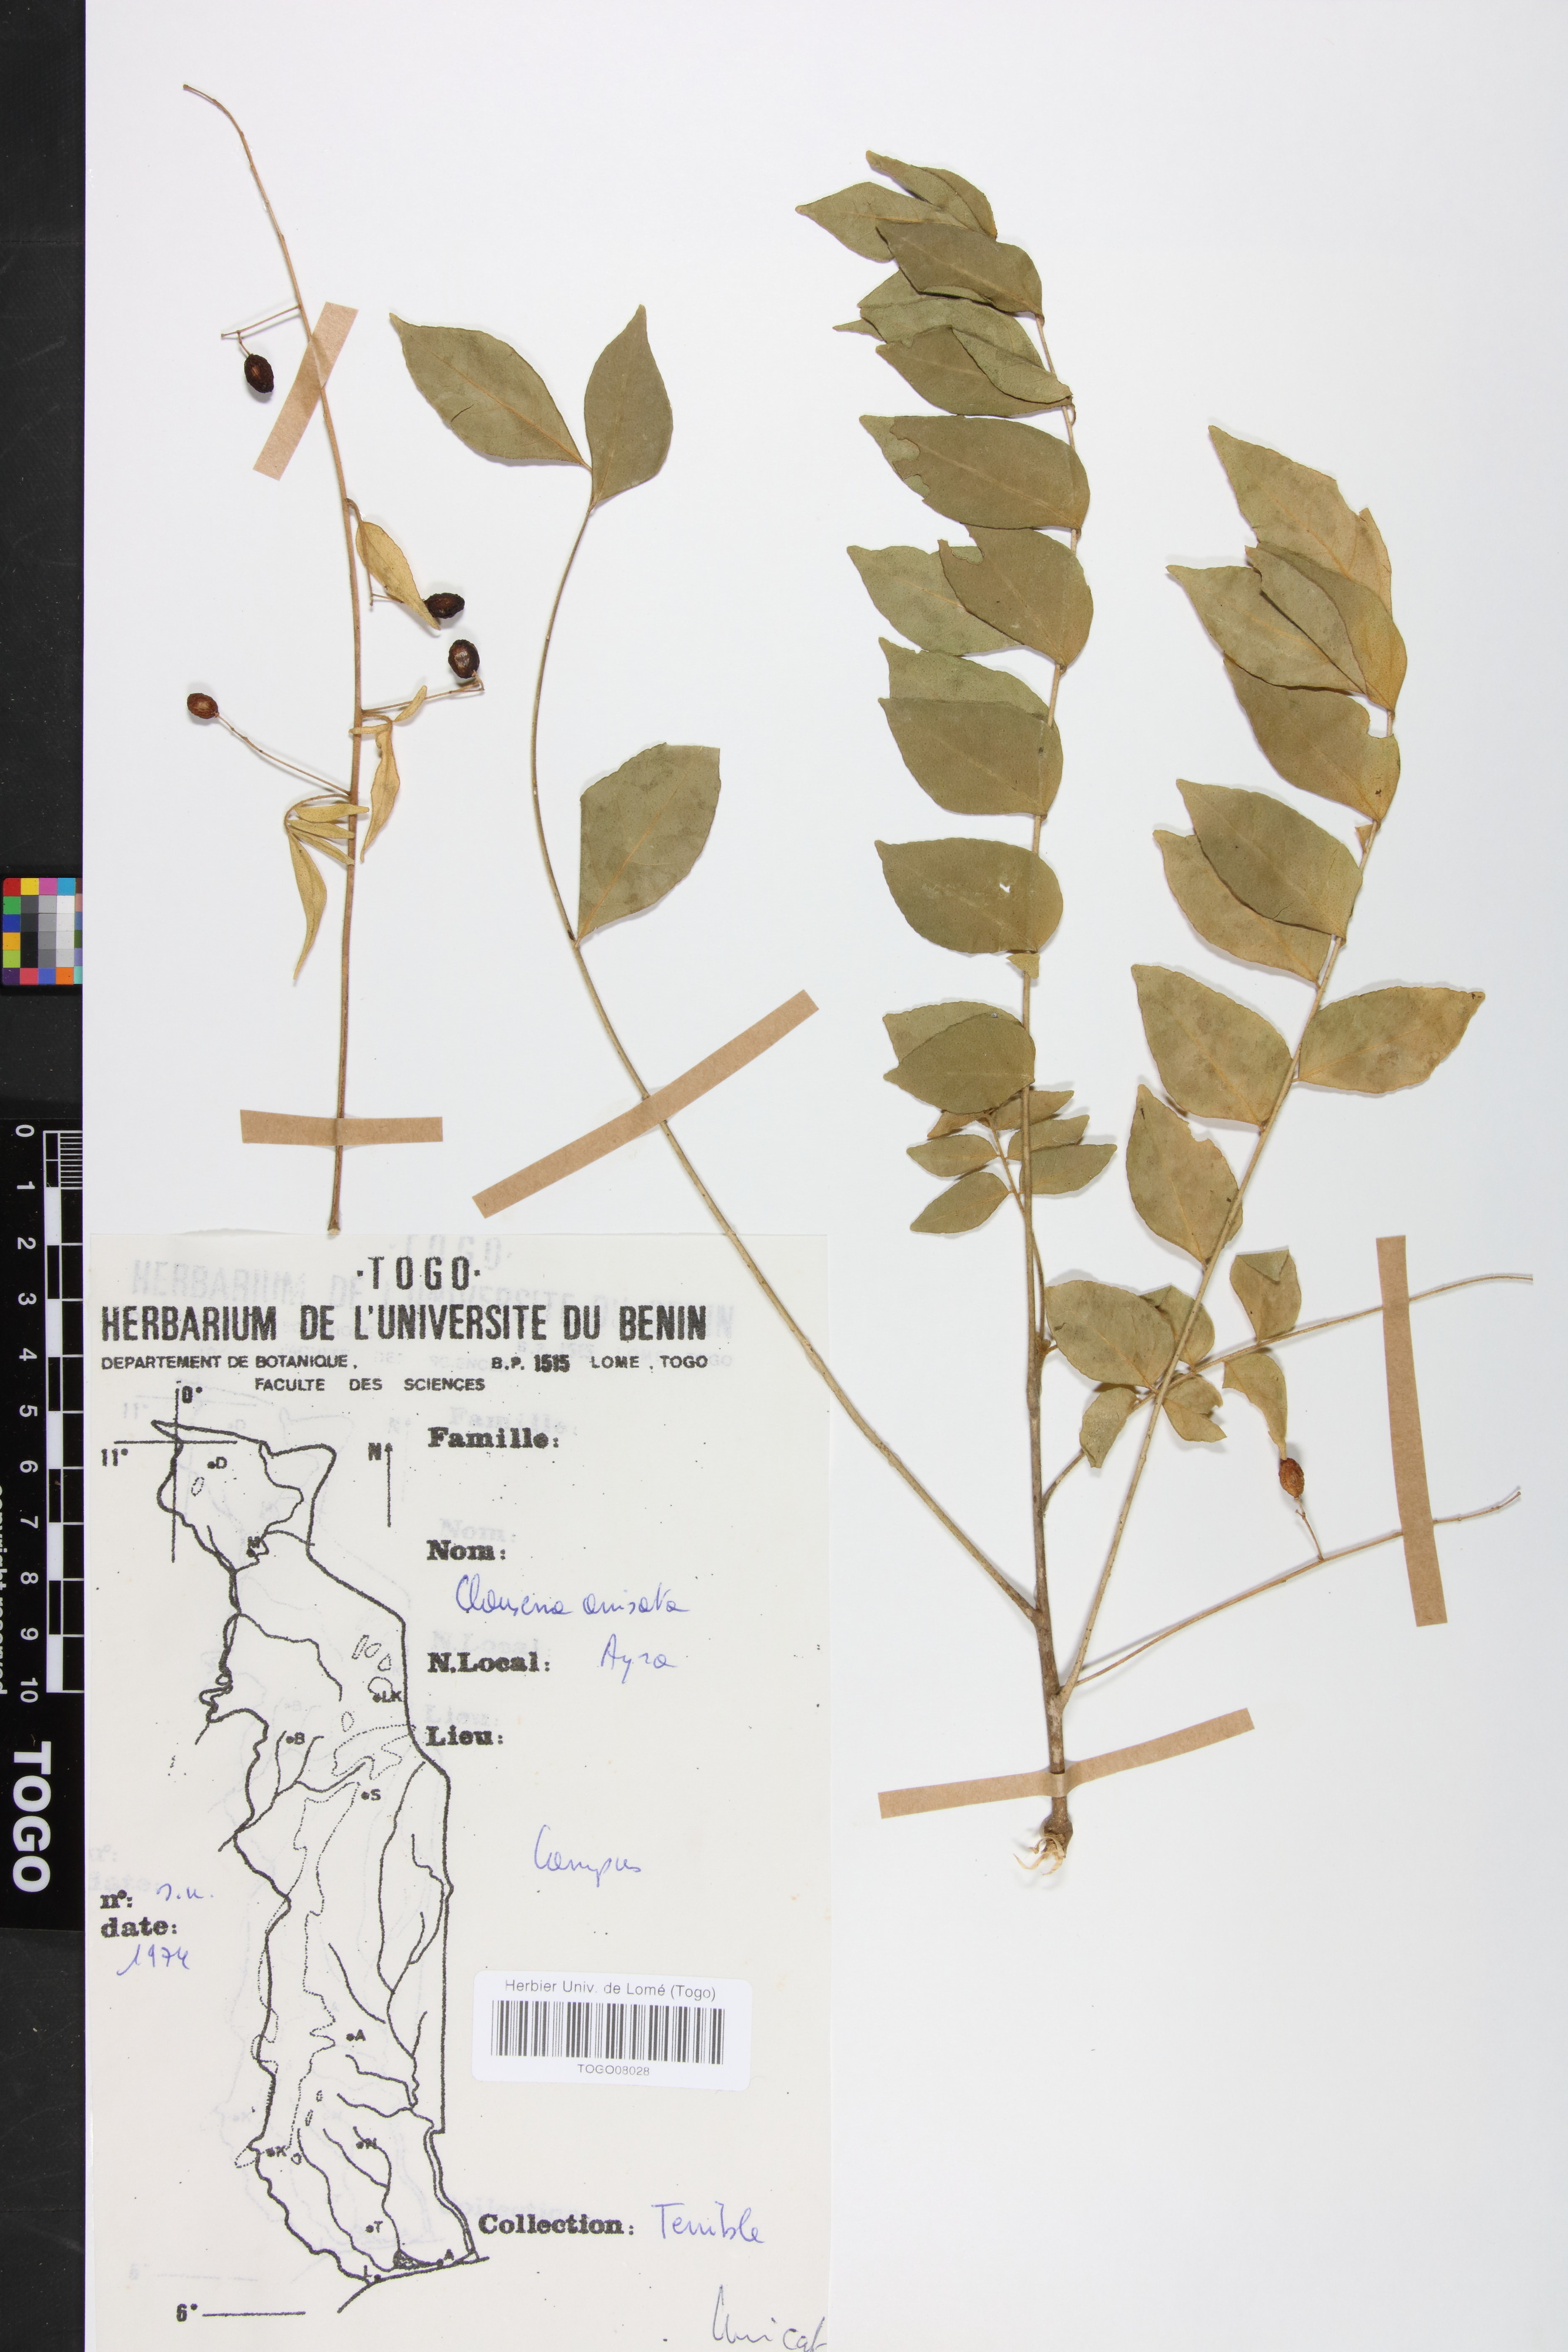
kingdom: Plantae
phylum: Tracheophyta
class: Magnoliopsida
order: Sapindales
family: Rutaceae
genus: Clausena
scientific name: Clausena anisata
